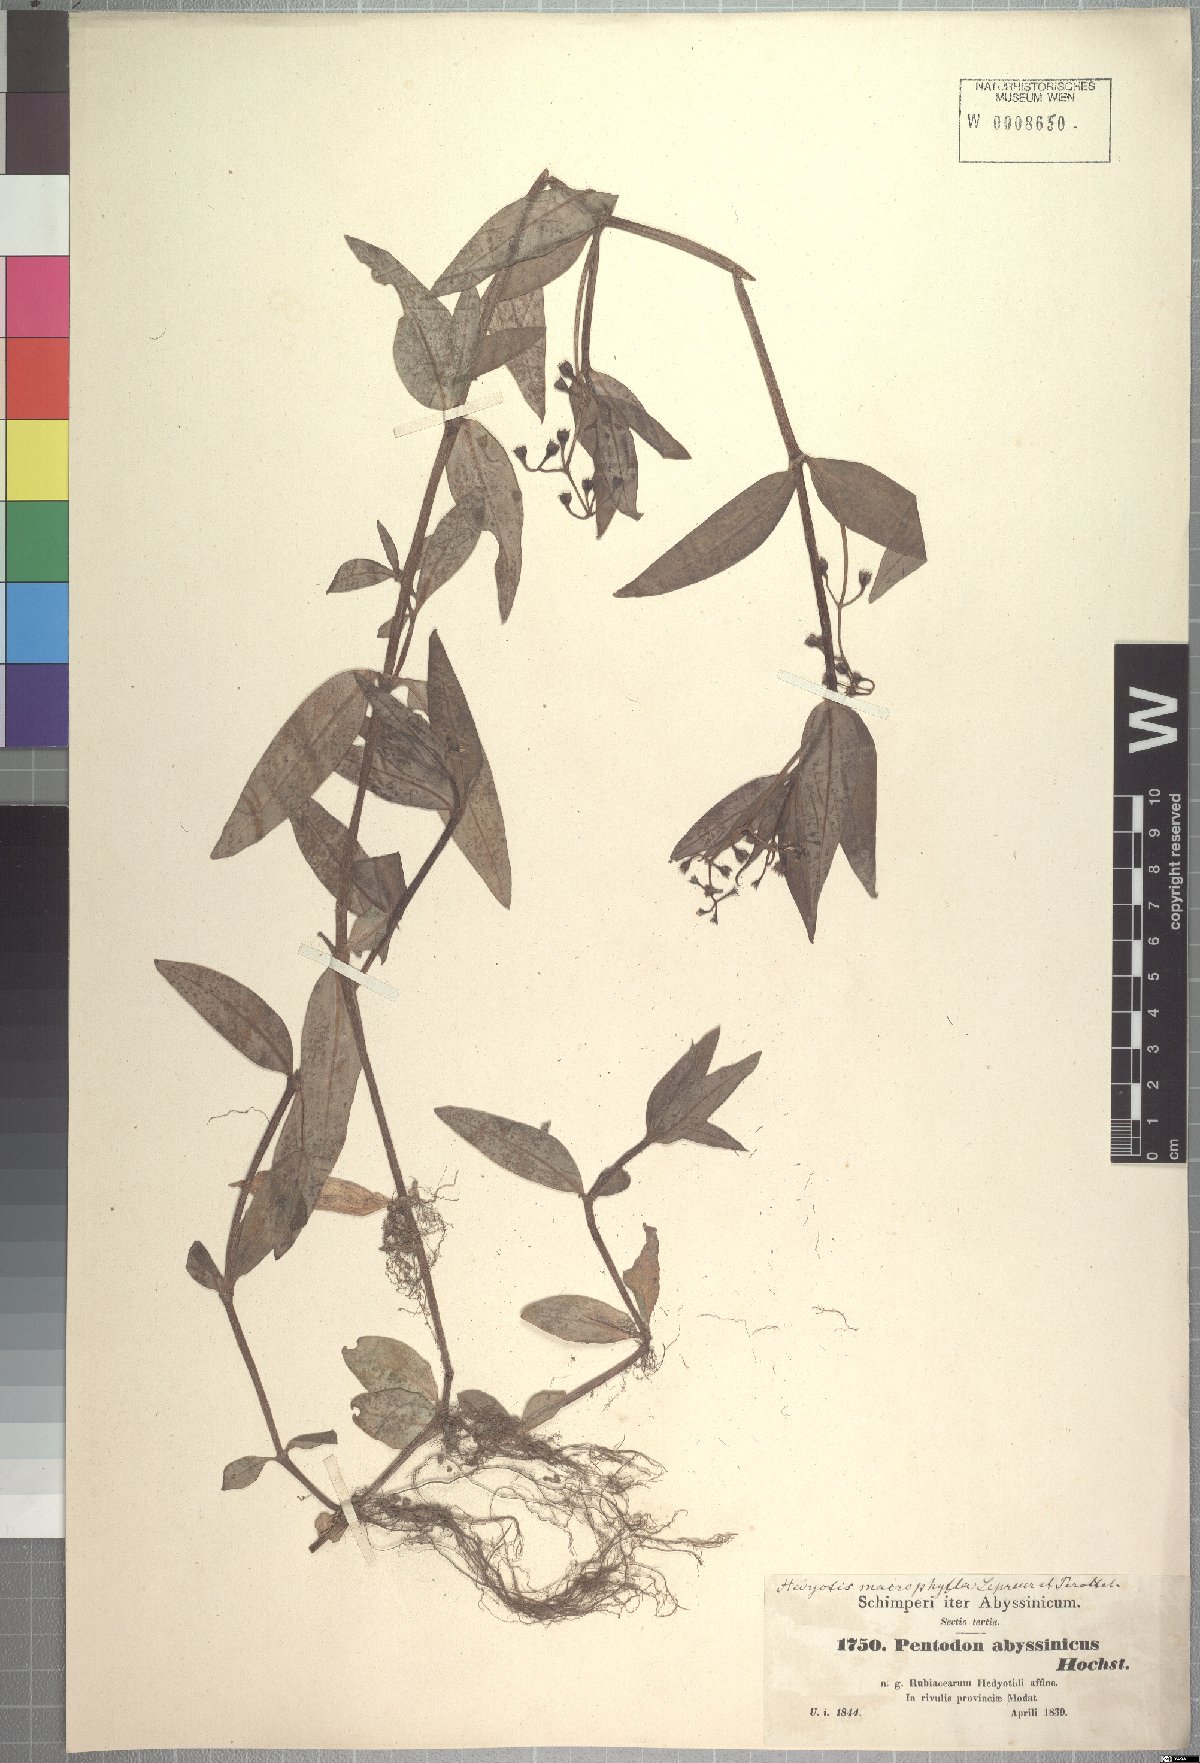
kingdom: Plantae
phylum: Tracheophyta
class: Magnoliopsida
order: Gentianales
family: Rubiaceae
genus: Pentodon
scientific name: Pentodon pentandrus
